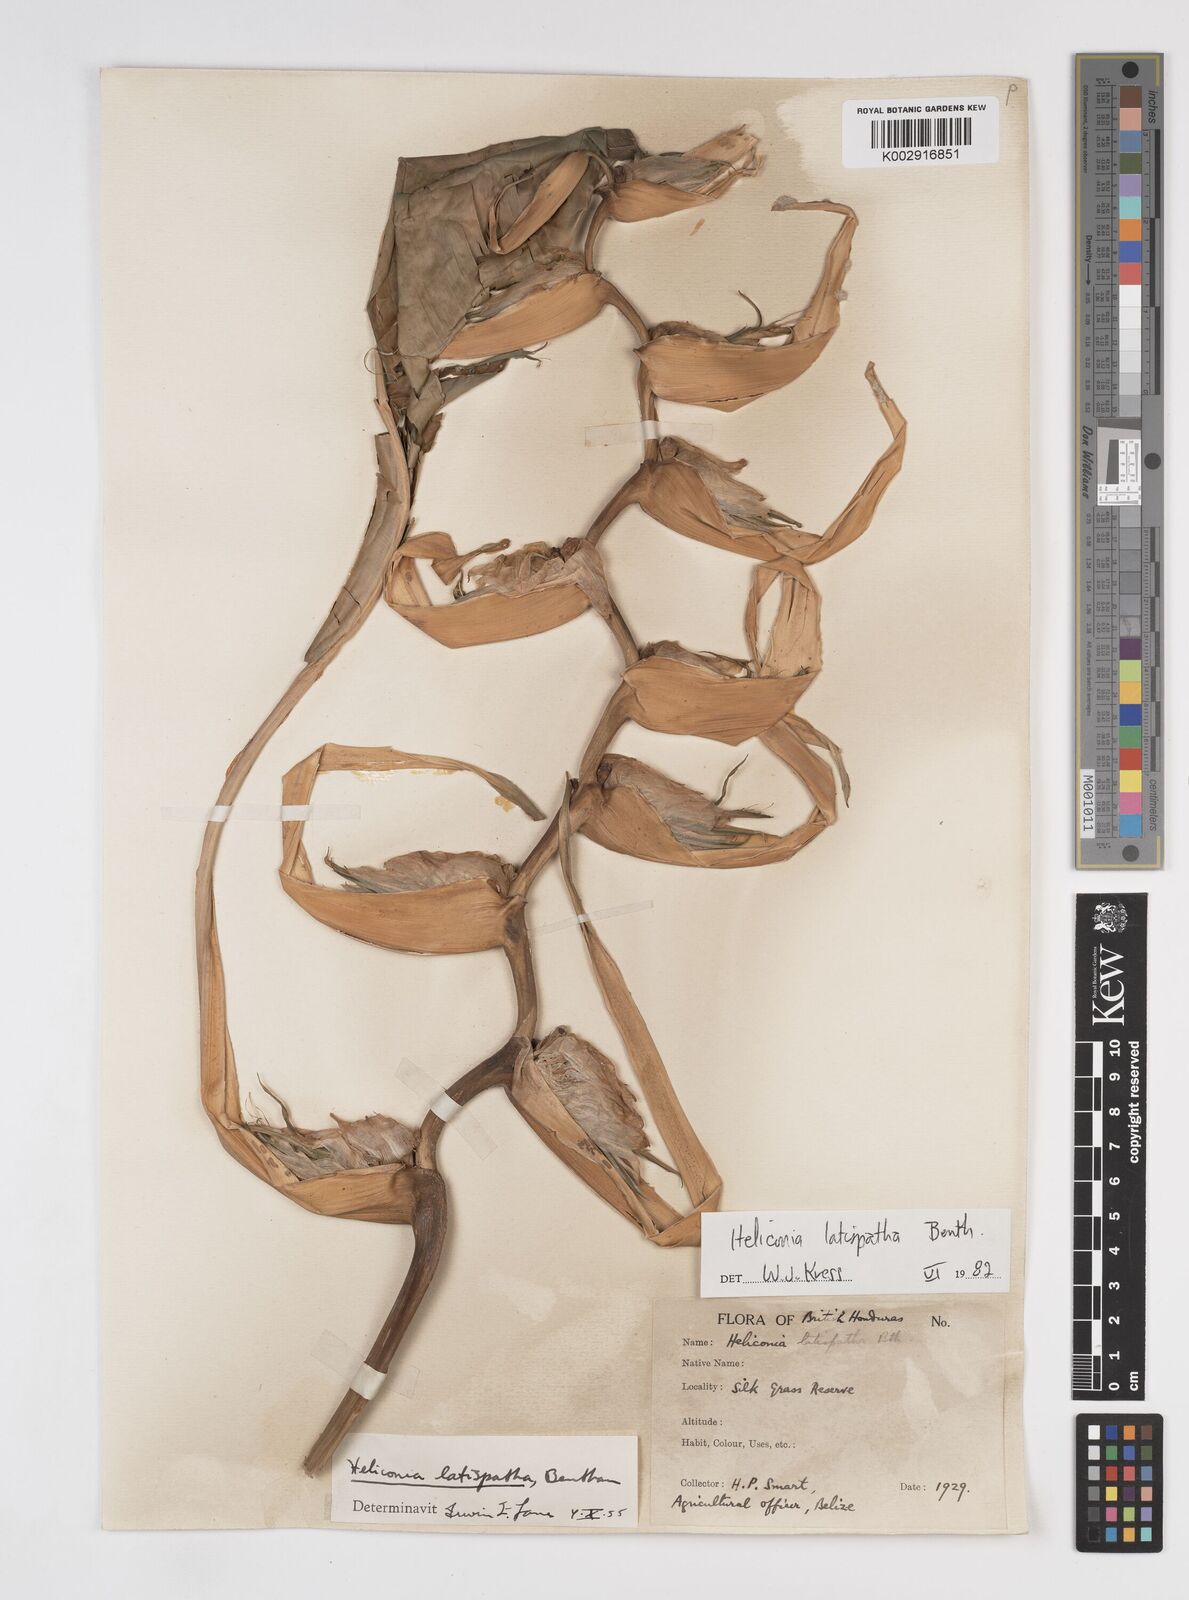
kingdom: Plantae
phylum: Tracheophyta
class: Liliopsida
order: Zingiberales
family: Heliconiaceae
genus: Heliconia
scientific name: Heliconia latispatha
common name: Expanded lobsterclaw
